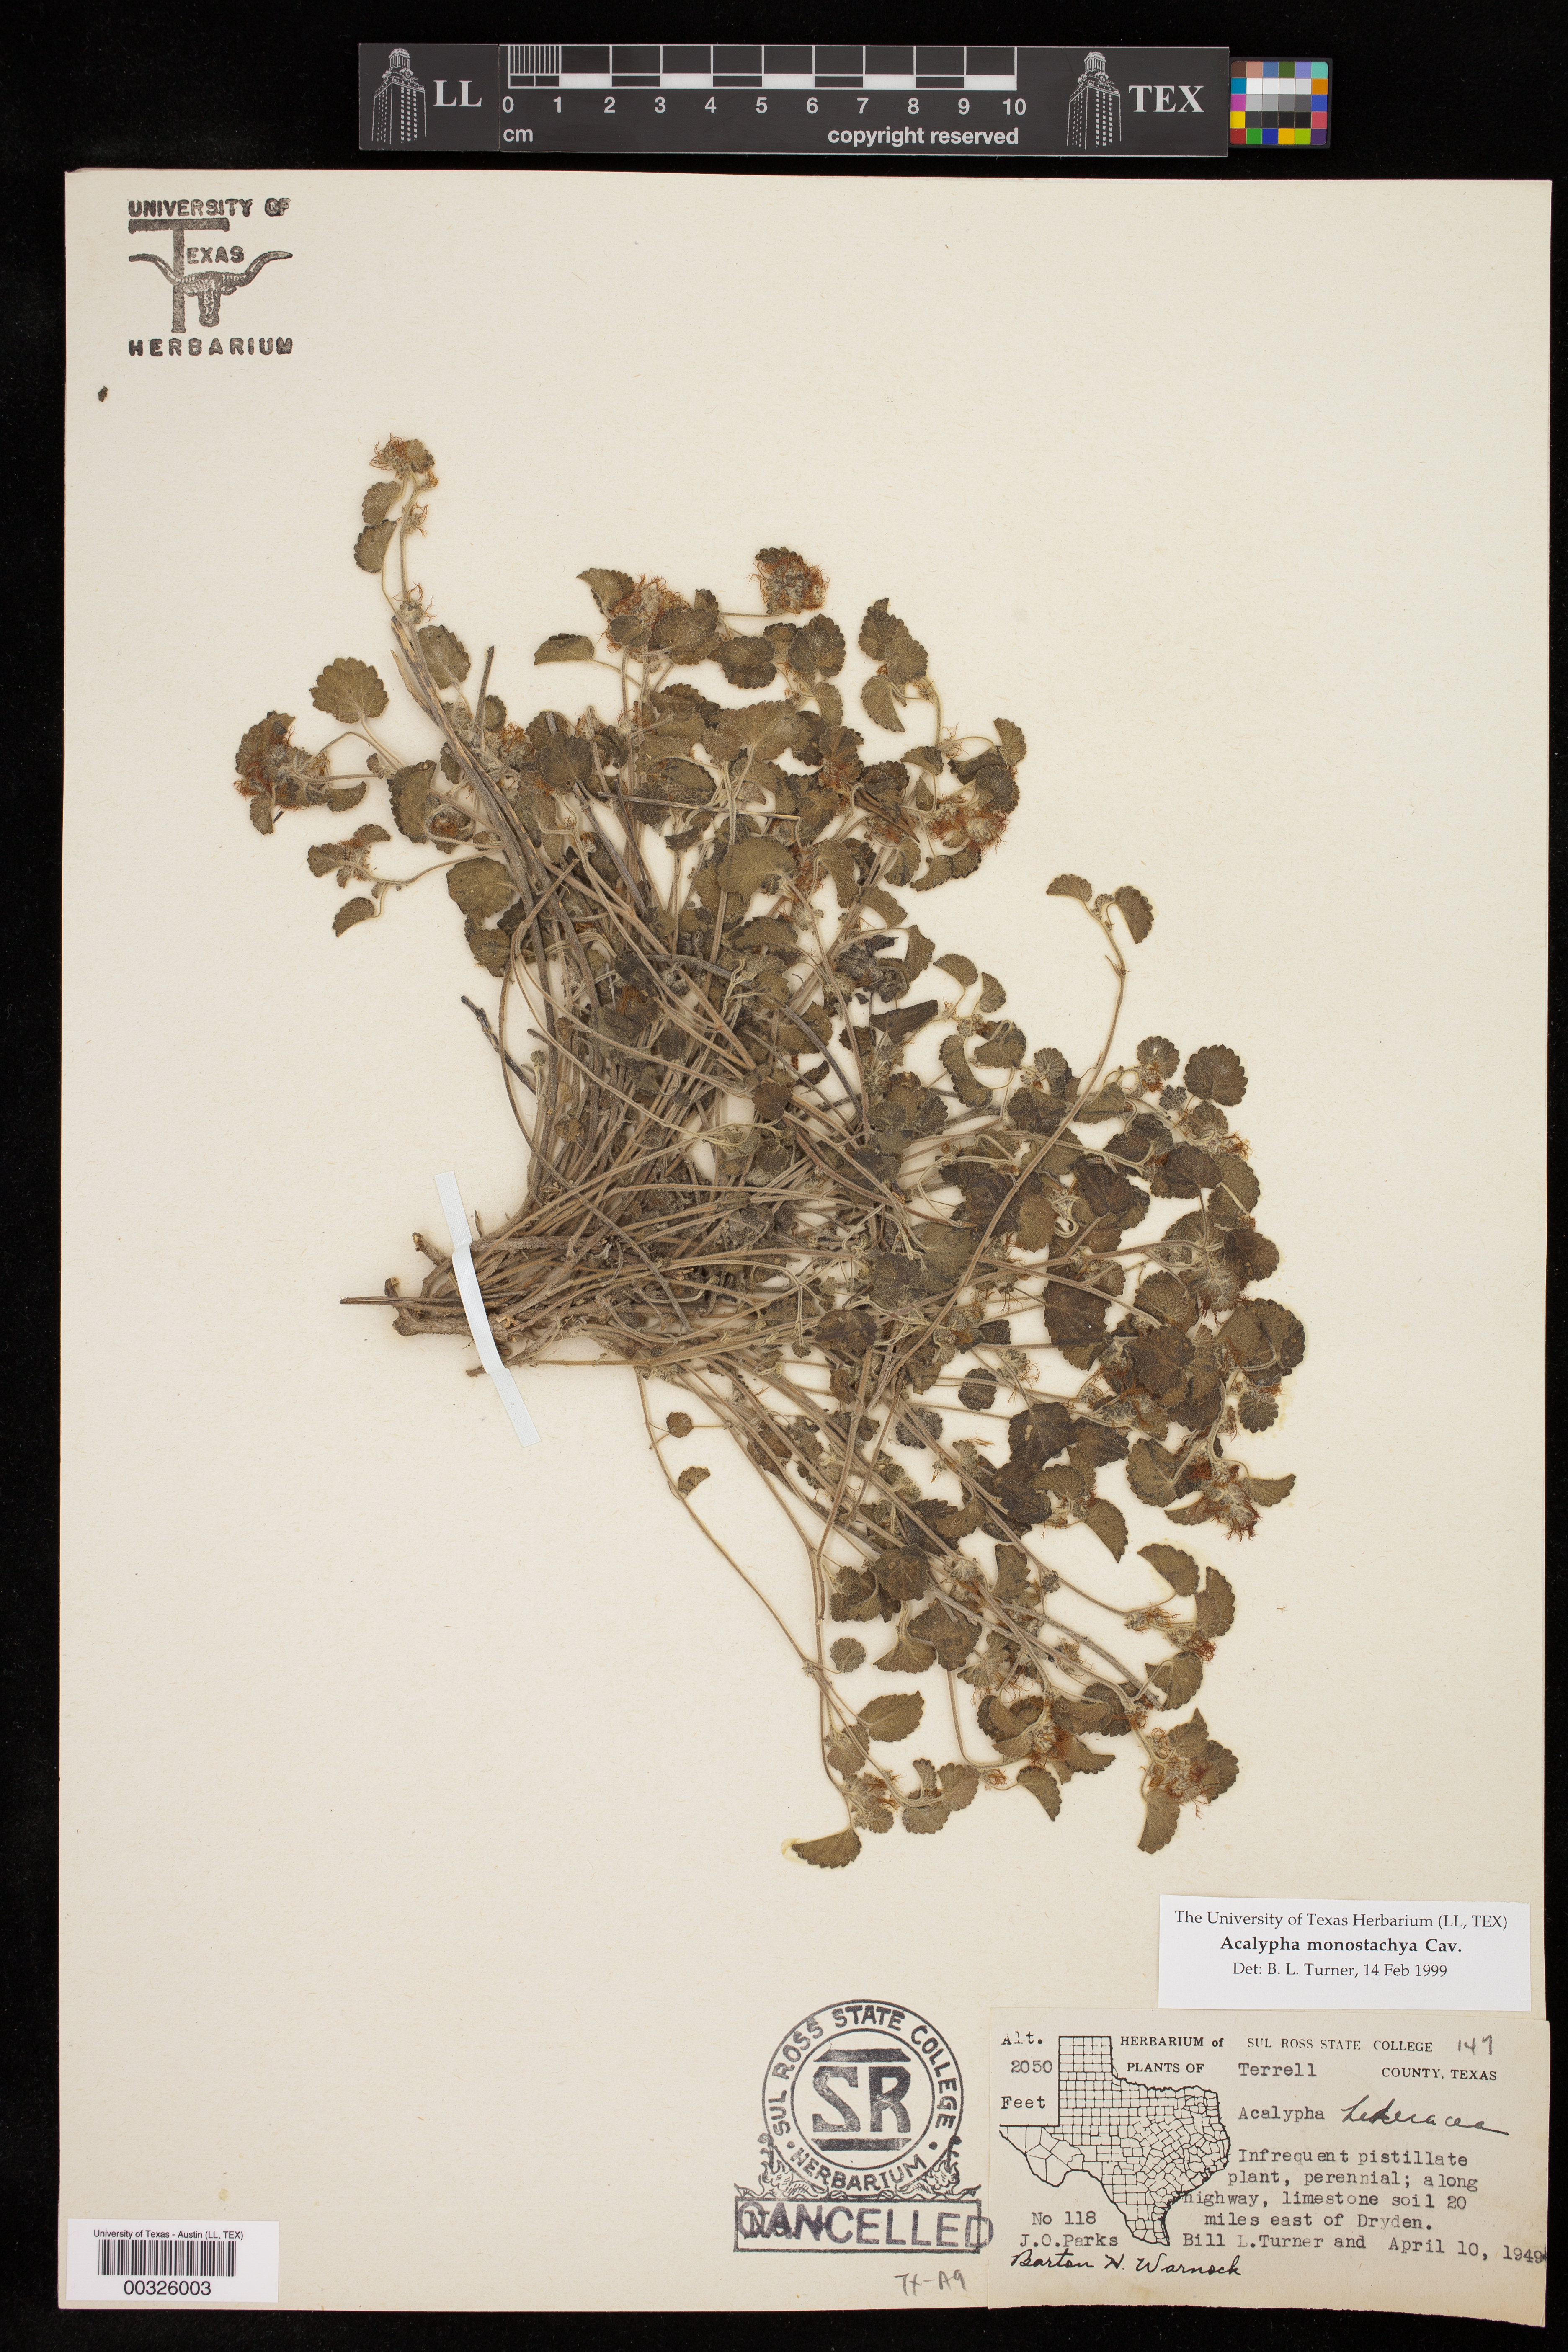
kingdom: Plantae
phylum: Tracheophyta
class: Magnoliopsida
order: Malpighiales
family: Euphorbiaceae
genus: Acalypha
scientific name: Acalypha monostachya
